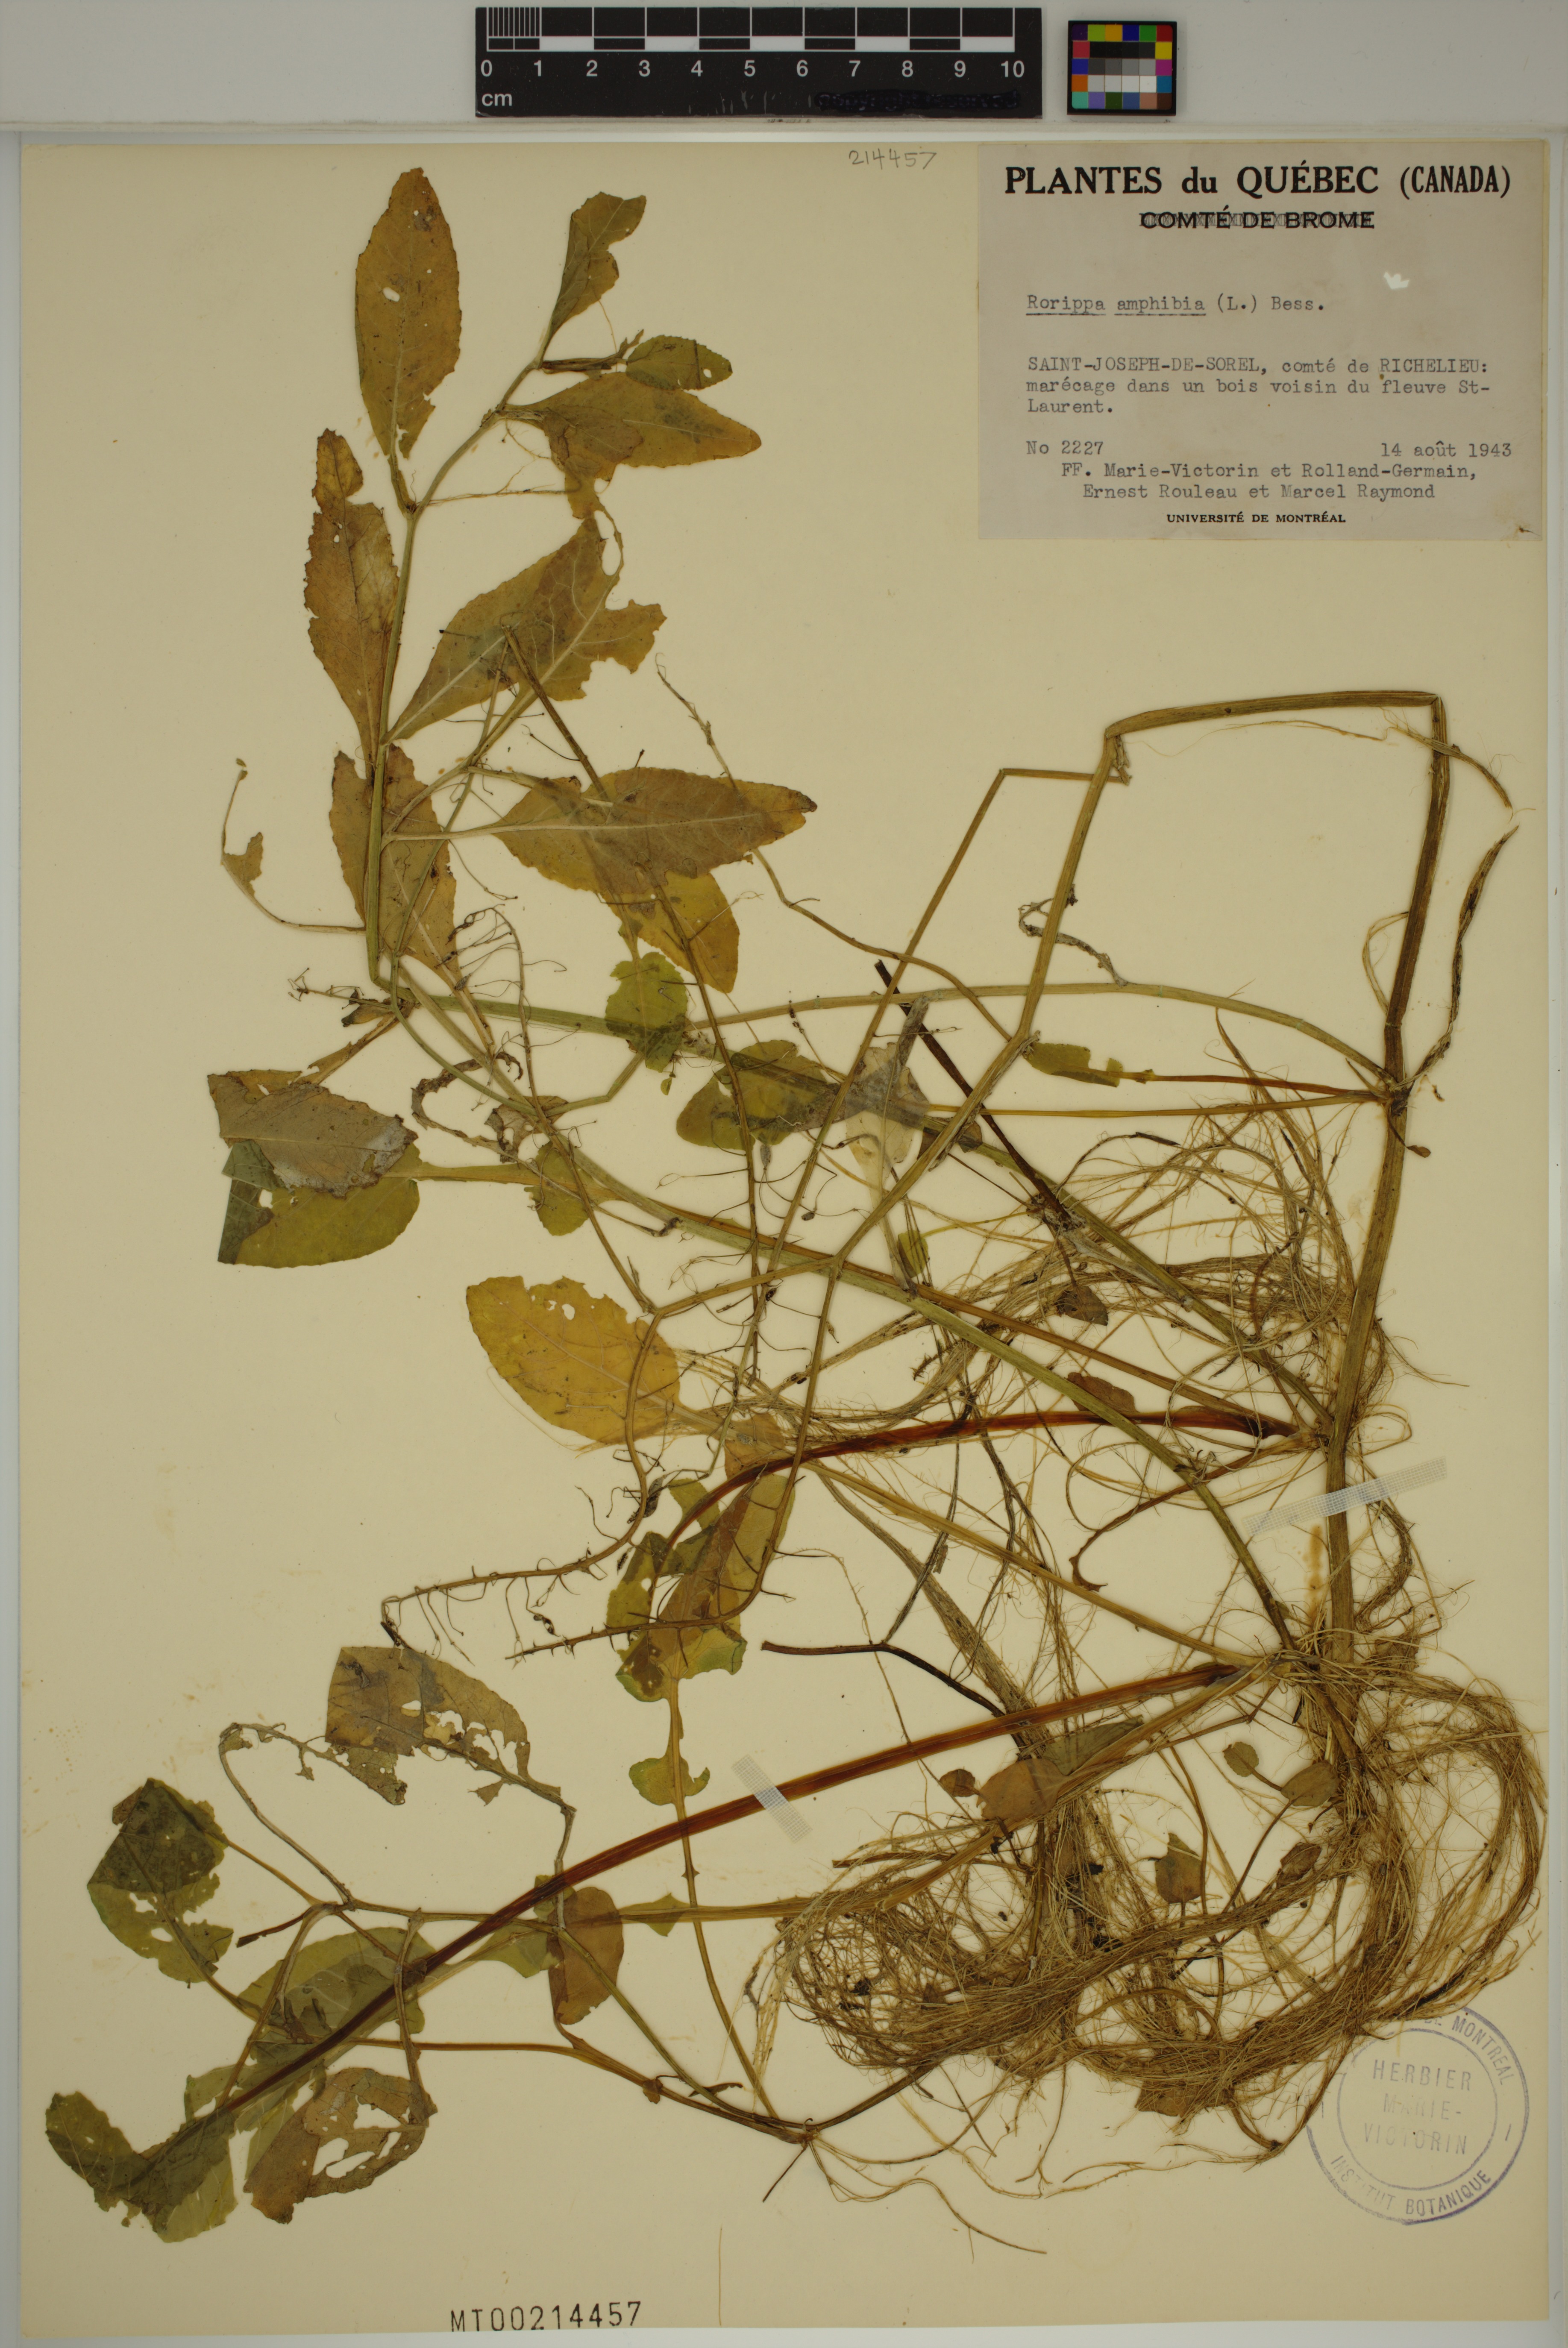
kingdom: Plantae
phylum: Tracheophyta
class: Magnoliopsida
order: Brassicales
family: Brassicaceae
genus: Rorippa
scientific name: Rorippa amphibia
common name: Great yellow-cress
